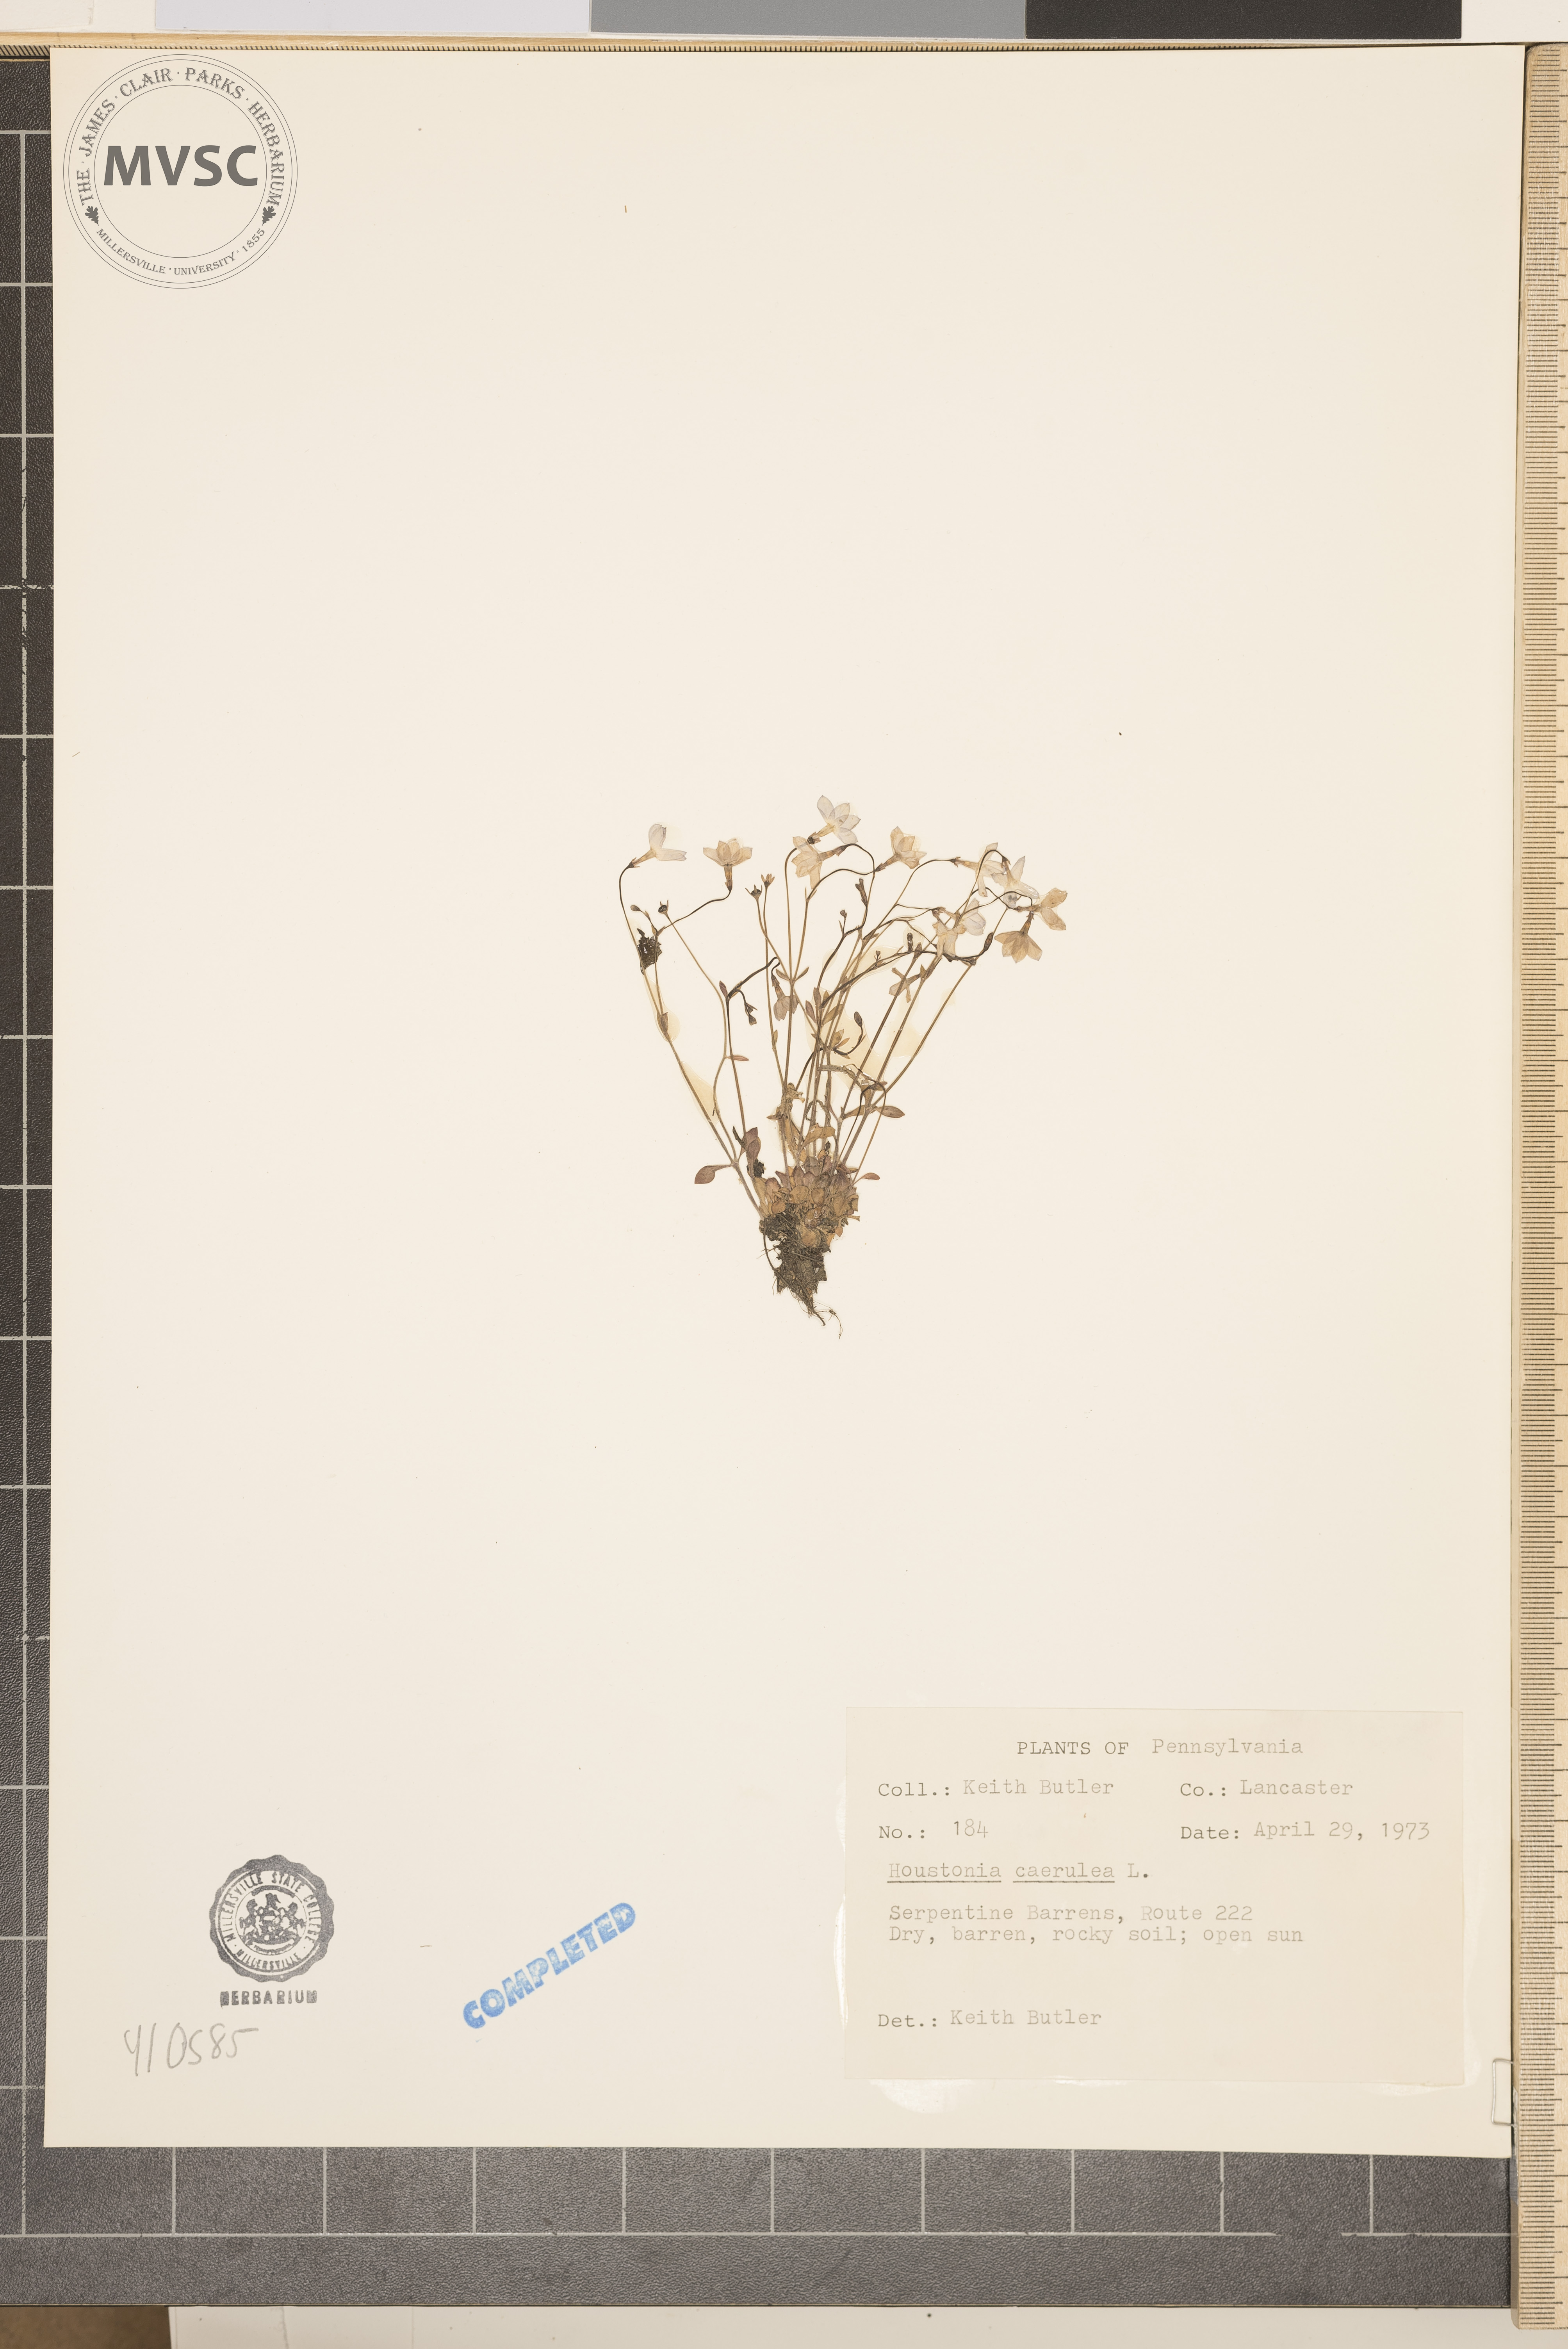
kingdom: Plantae
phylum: Tracheophyta
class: Magnoliopsida
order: Gentianales
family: Rubiaceae
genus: Houstonia
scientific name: Houstonia caerulea
